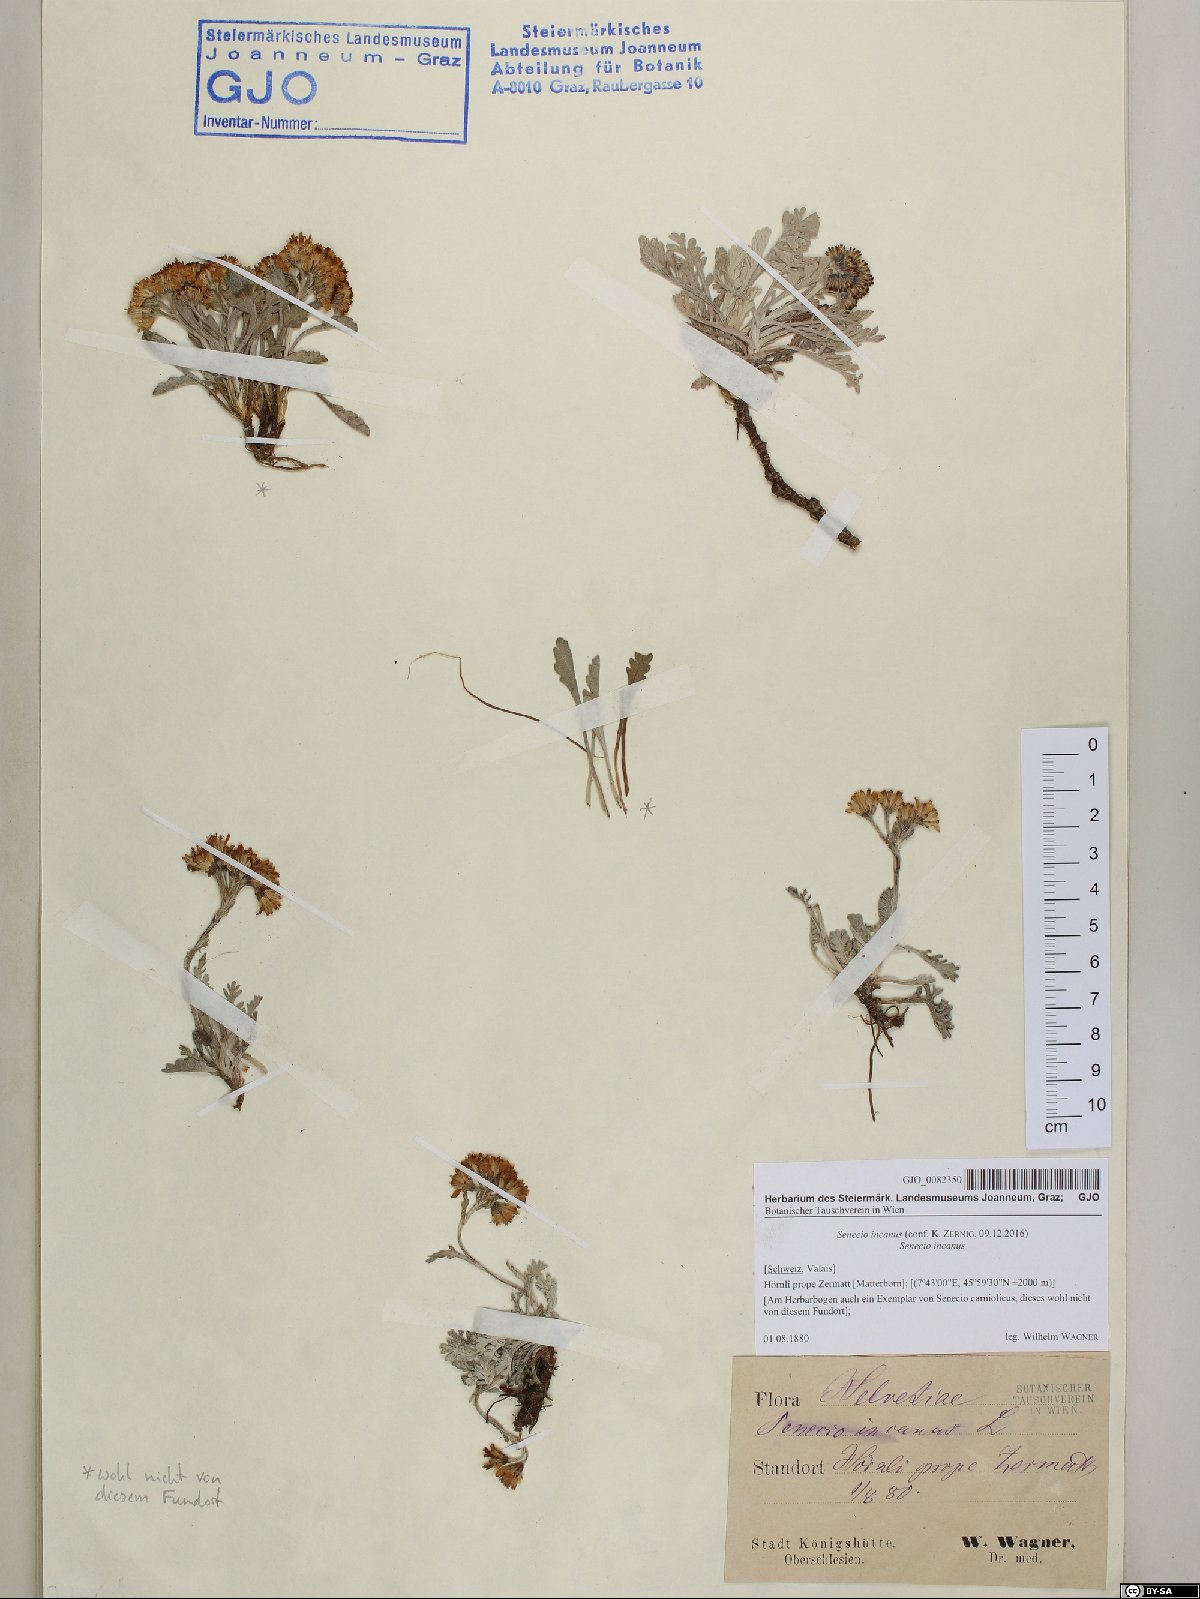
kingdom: Plantae
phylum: Tracheophyta
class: Magnoliopsida
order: Asterales
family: Asteraceae
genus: Jacobaea
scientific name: Jacobaea incana
